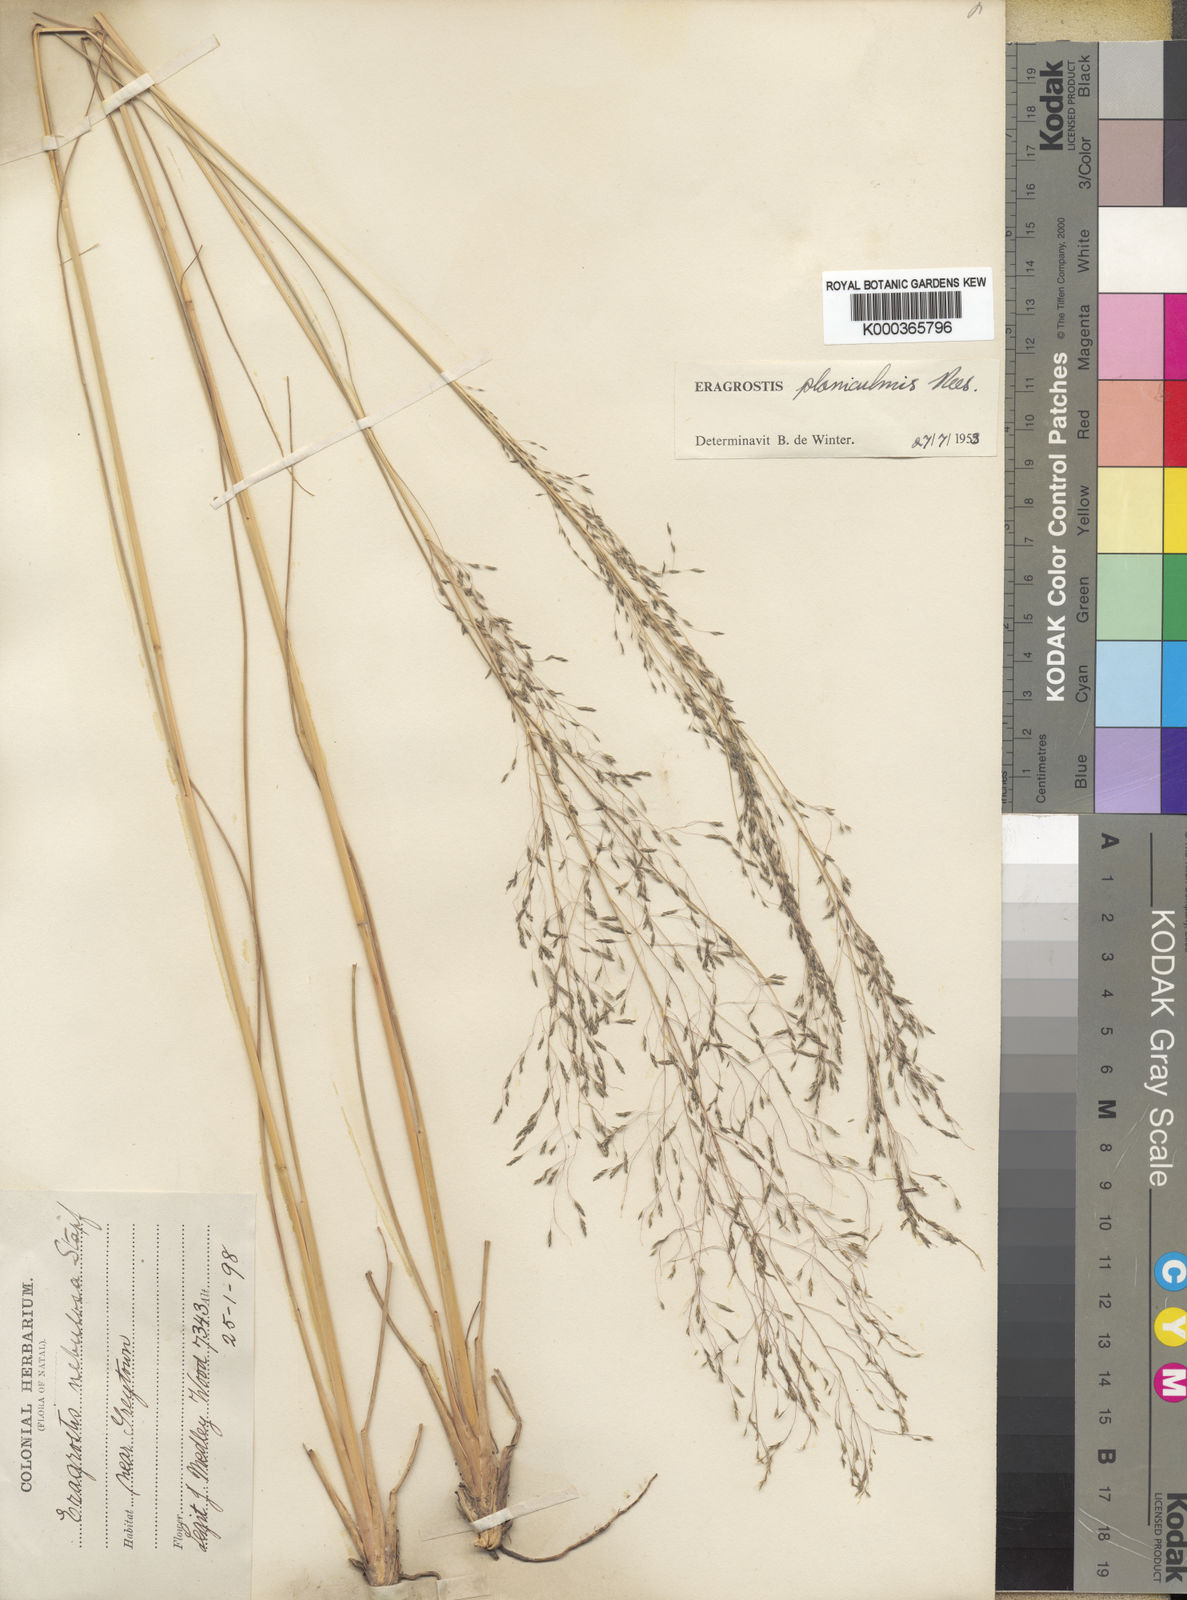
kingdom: Plantae
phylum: Tracheophyta
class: Liliopsida
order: Poales
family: Poaceae
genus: Eragrostis
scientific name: Eragrostis planiculmis
